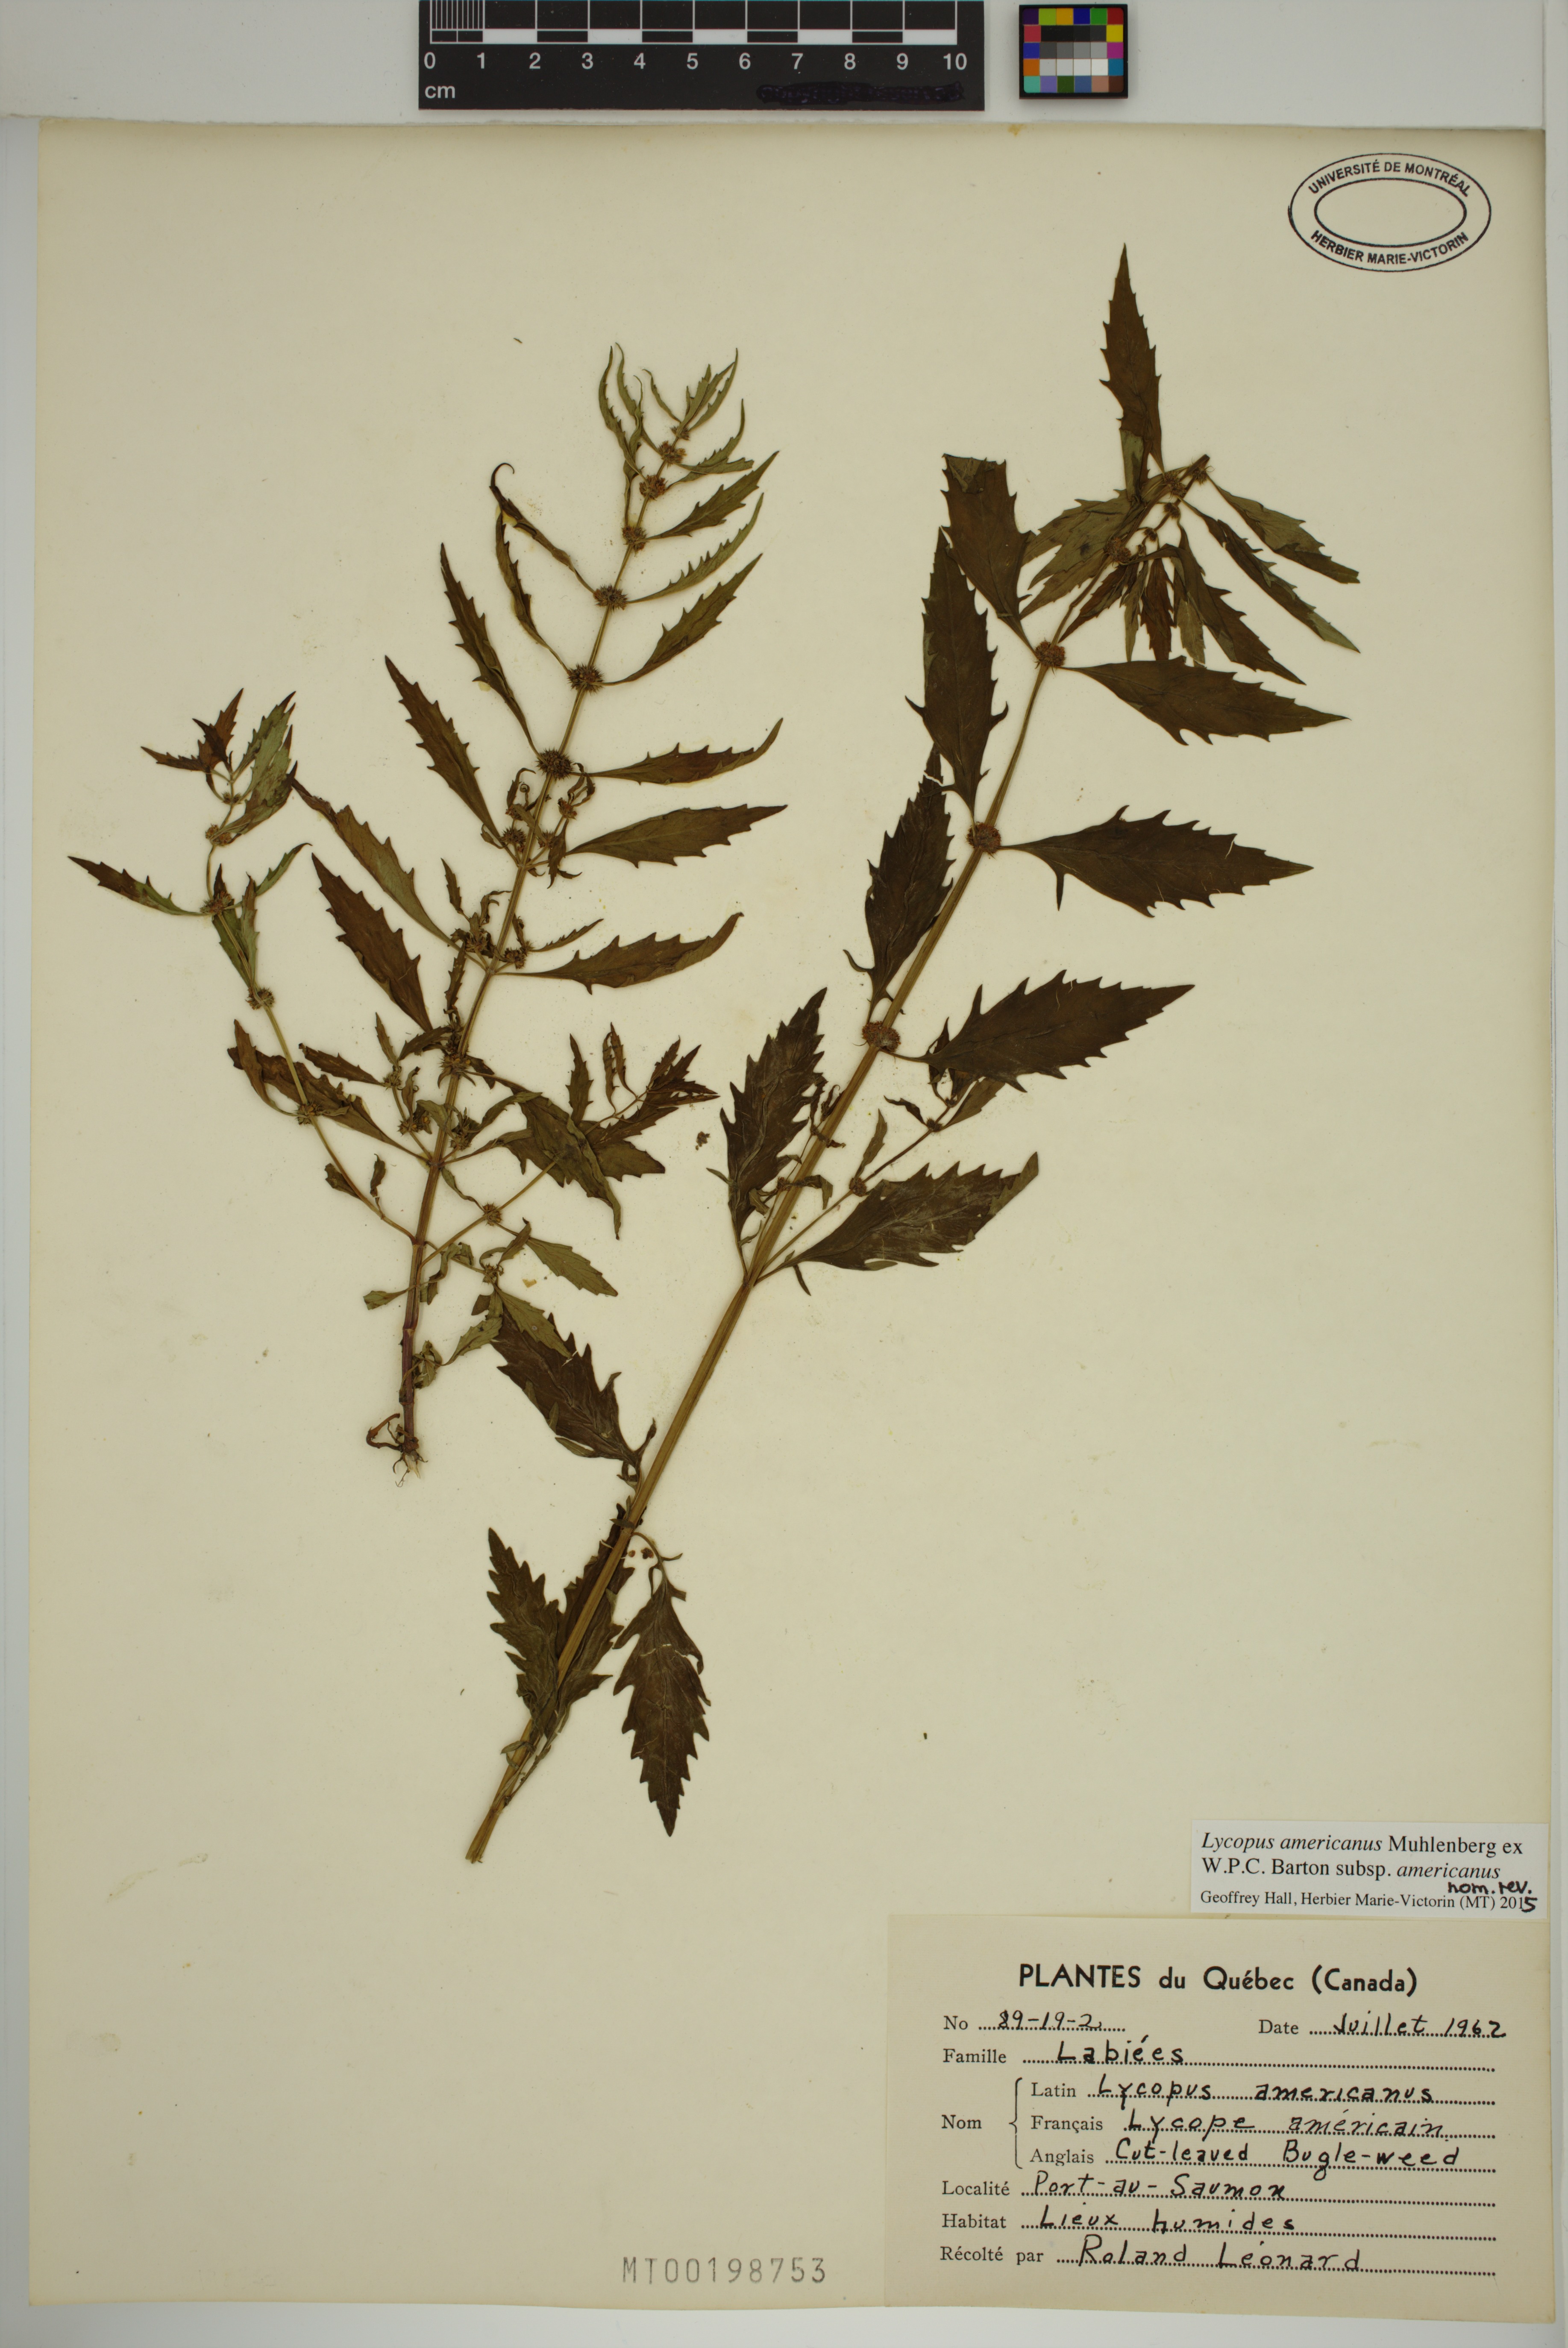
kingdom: Plantae
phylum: Tracheophyta
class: Magnoliopsida
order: Lamiales
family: Lamiaceae
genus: Lycopus
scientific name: Lycopus americanus
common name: American bugleweed
